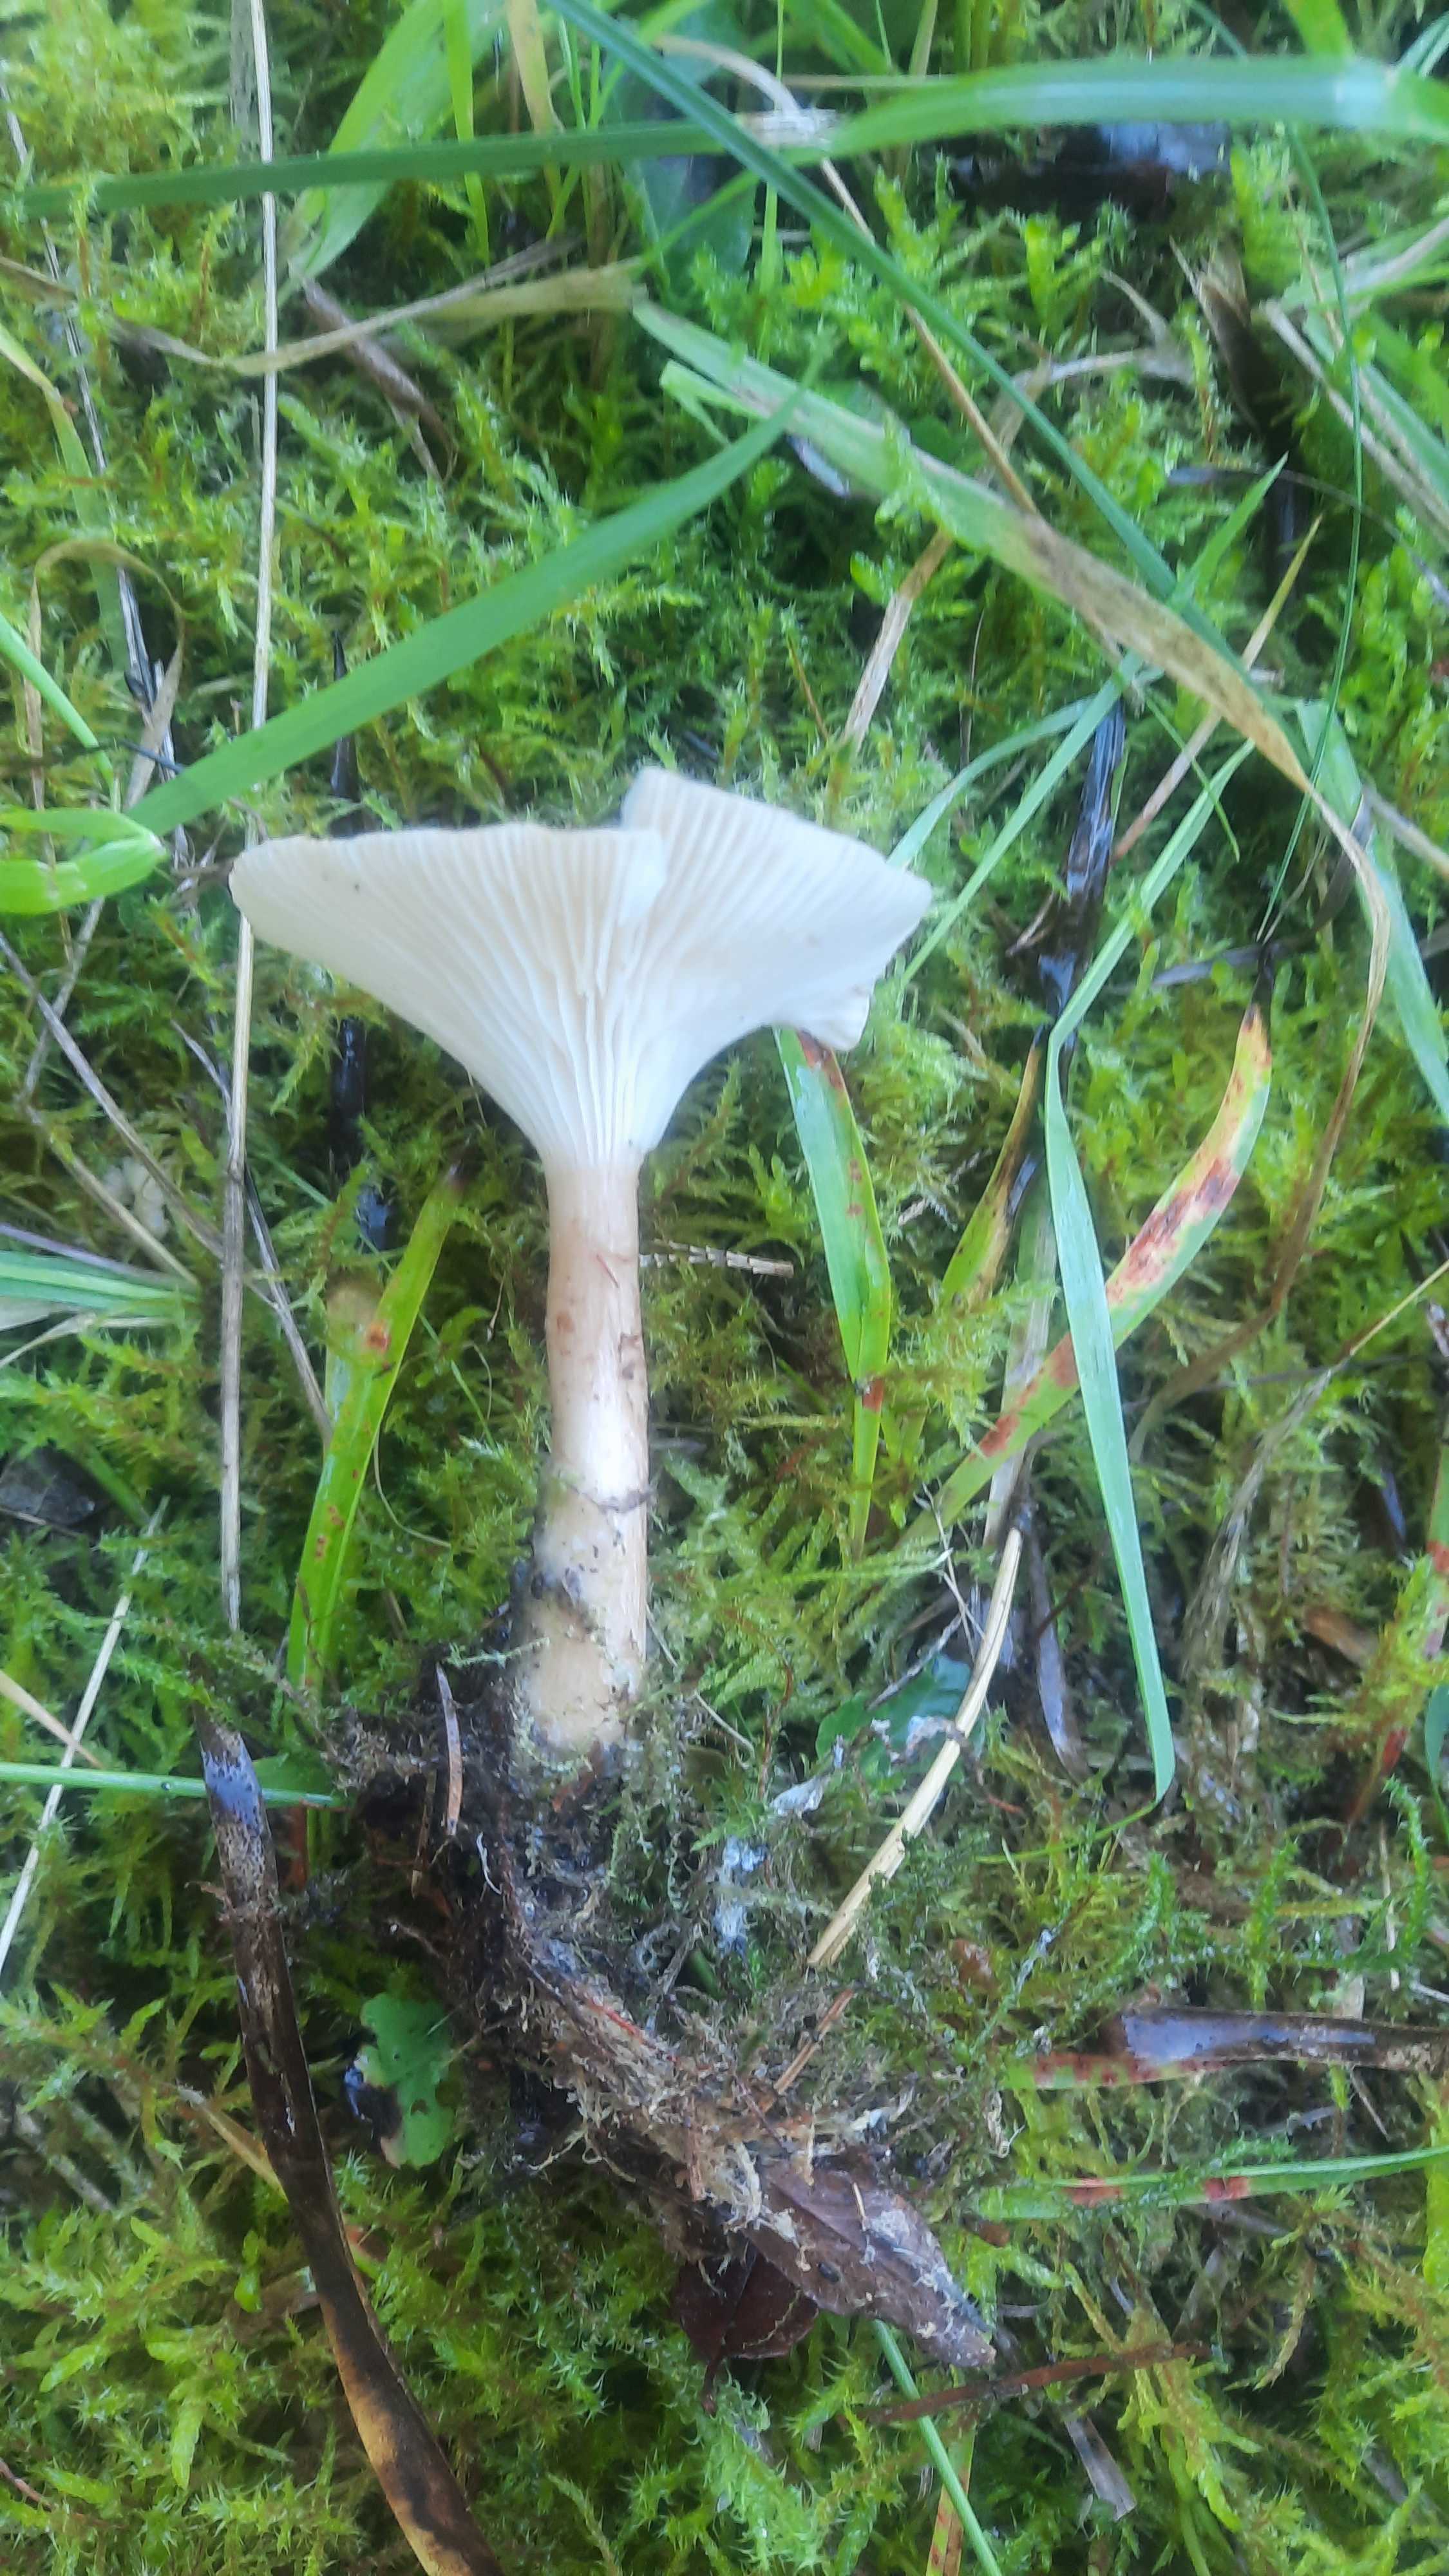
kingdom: Fungi
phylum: Basidiomycota
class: Agaricomycetes
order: Agaricales
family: Tricholomataceae
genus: Infundibulicybe
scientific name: Infundibulicybe gibba
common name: almindelig tragthat
